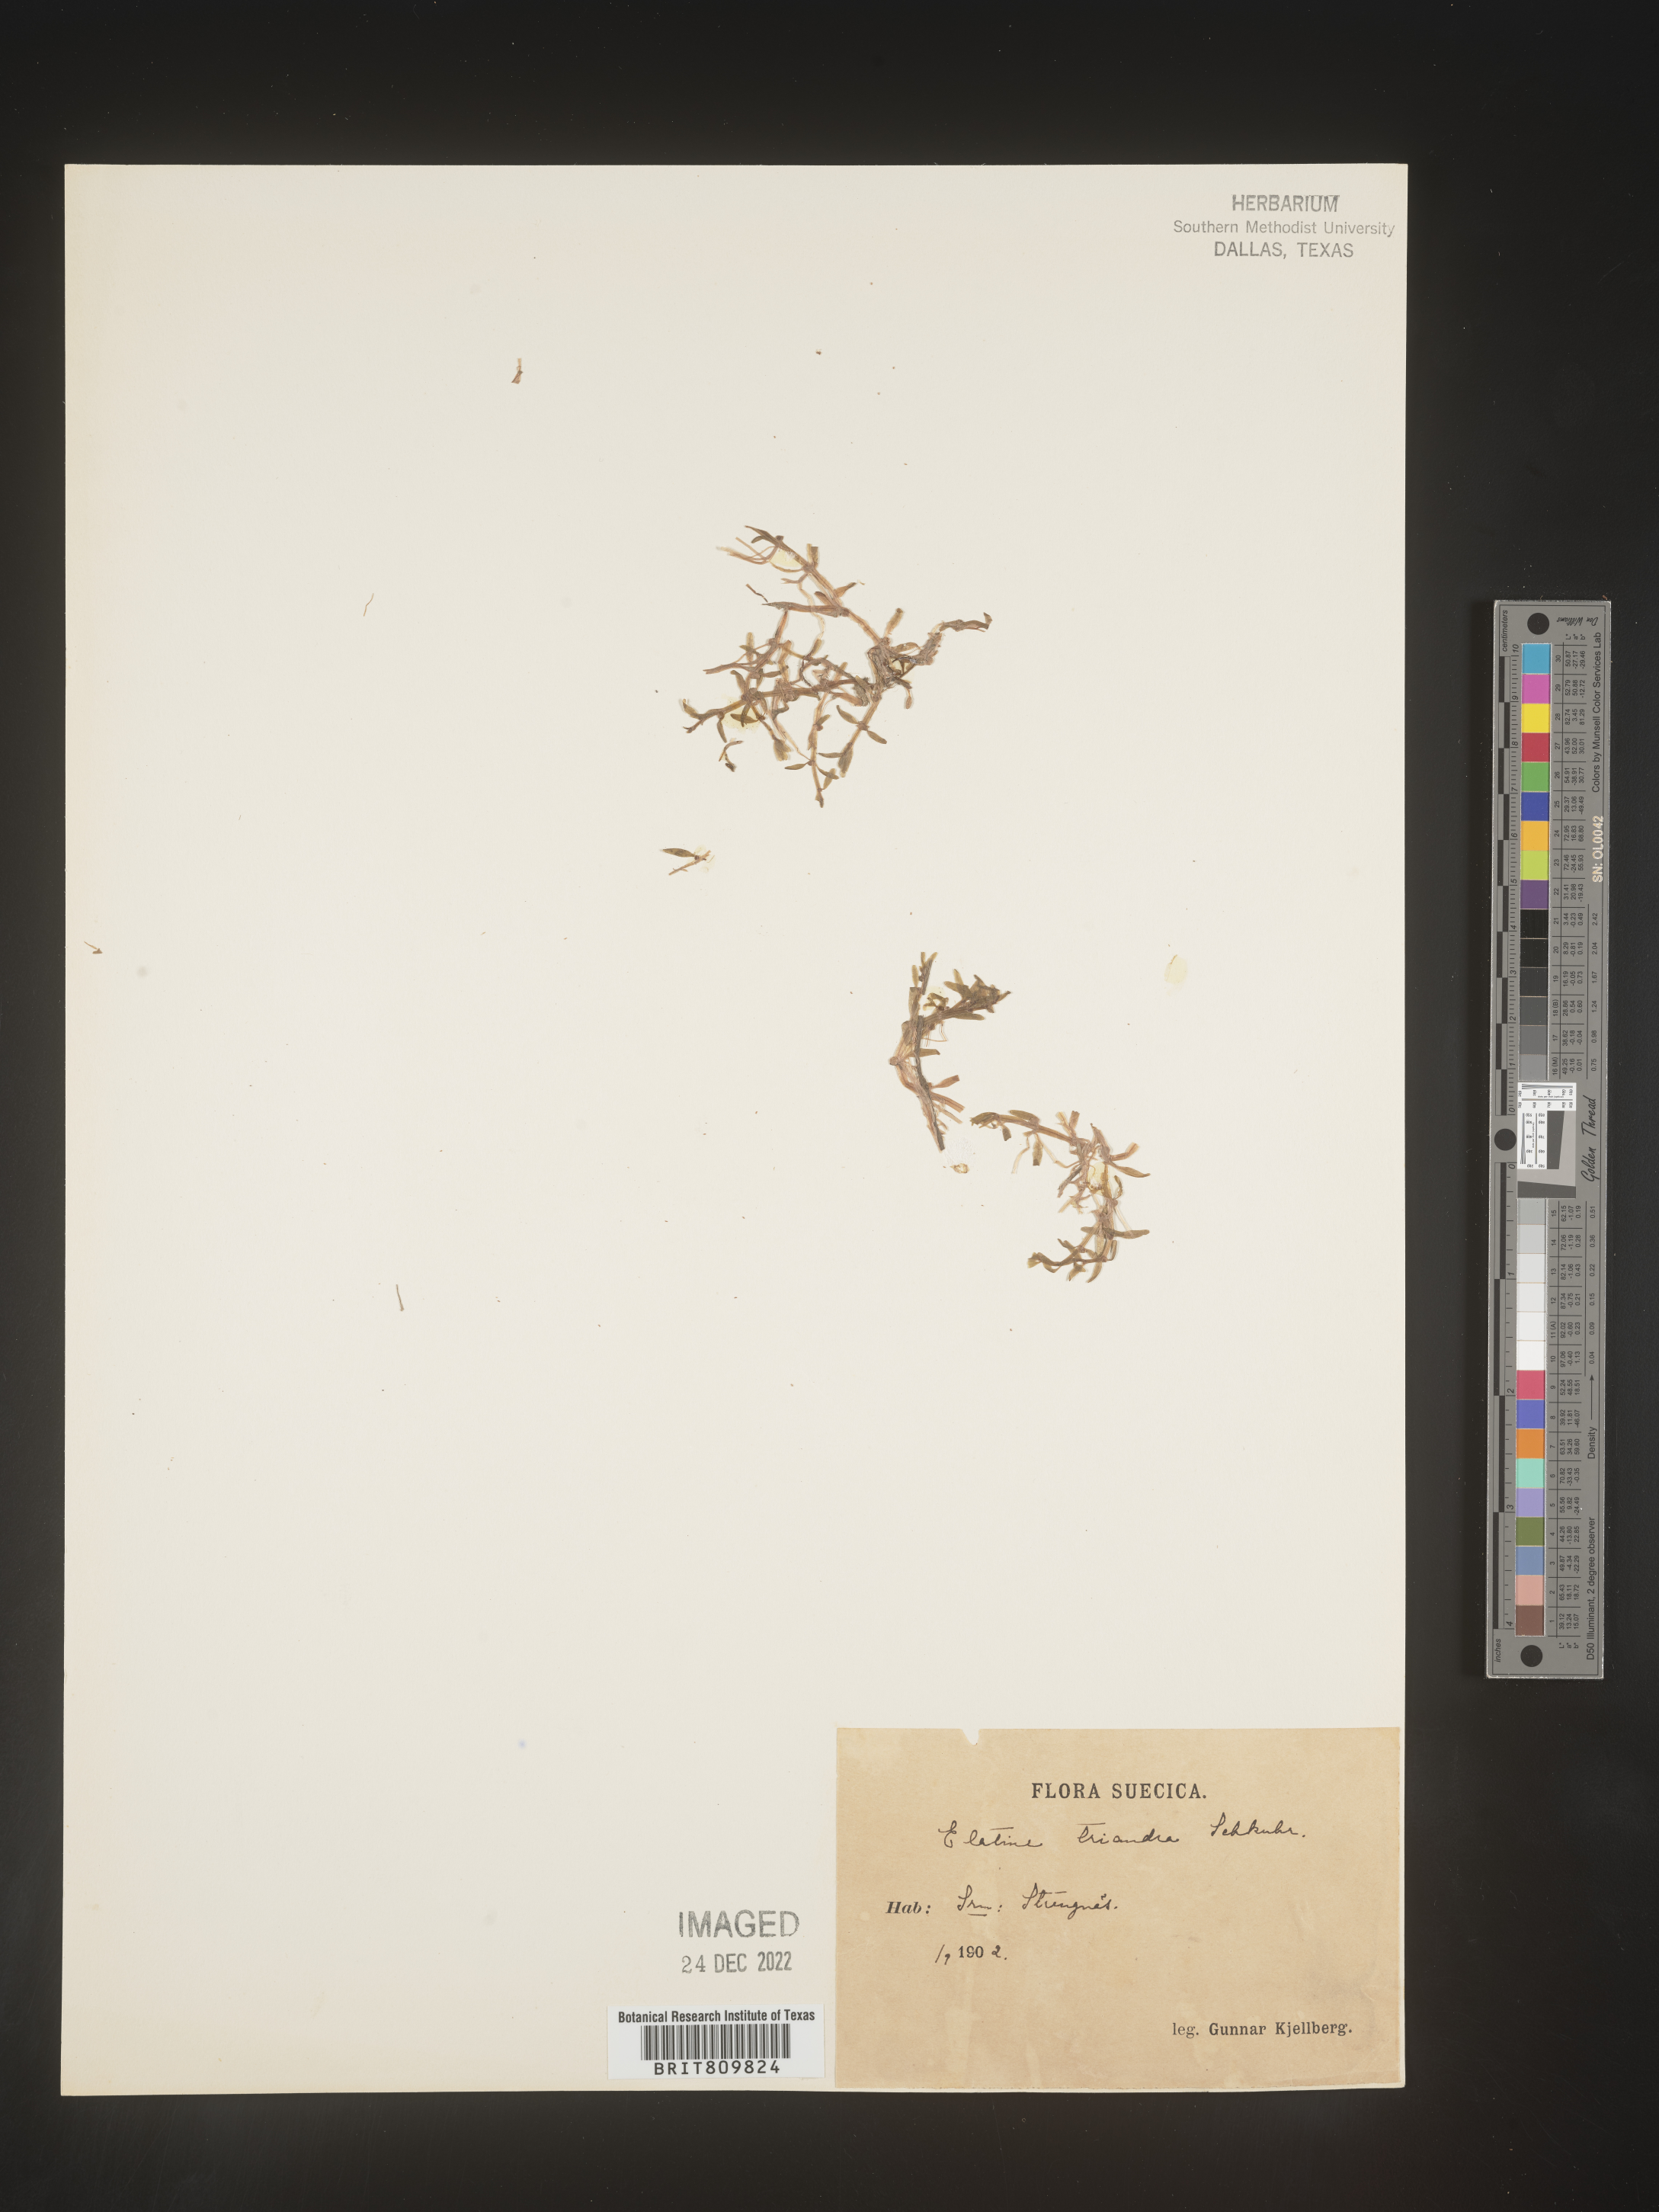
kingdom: Plantae
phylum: Tracheophyta
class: Magnoliopsida
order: Malpighiales
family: Elatinaceae
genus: Elatine
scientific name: Elatine
